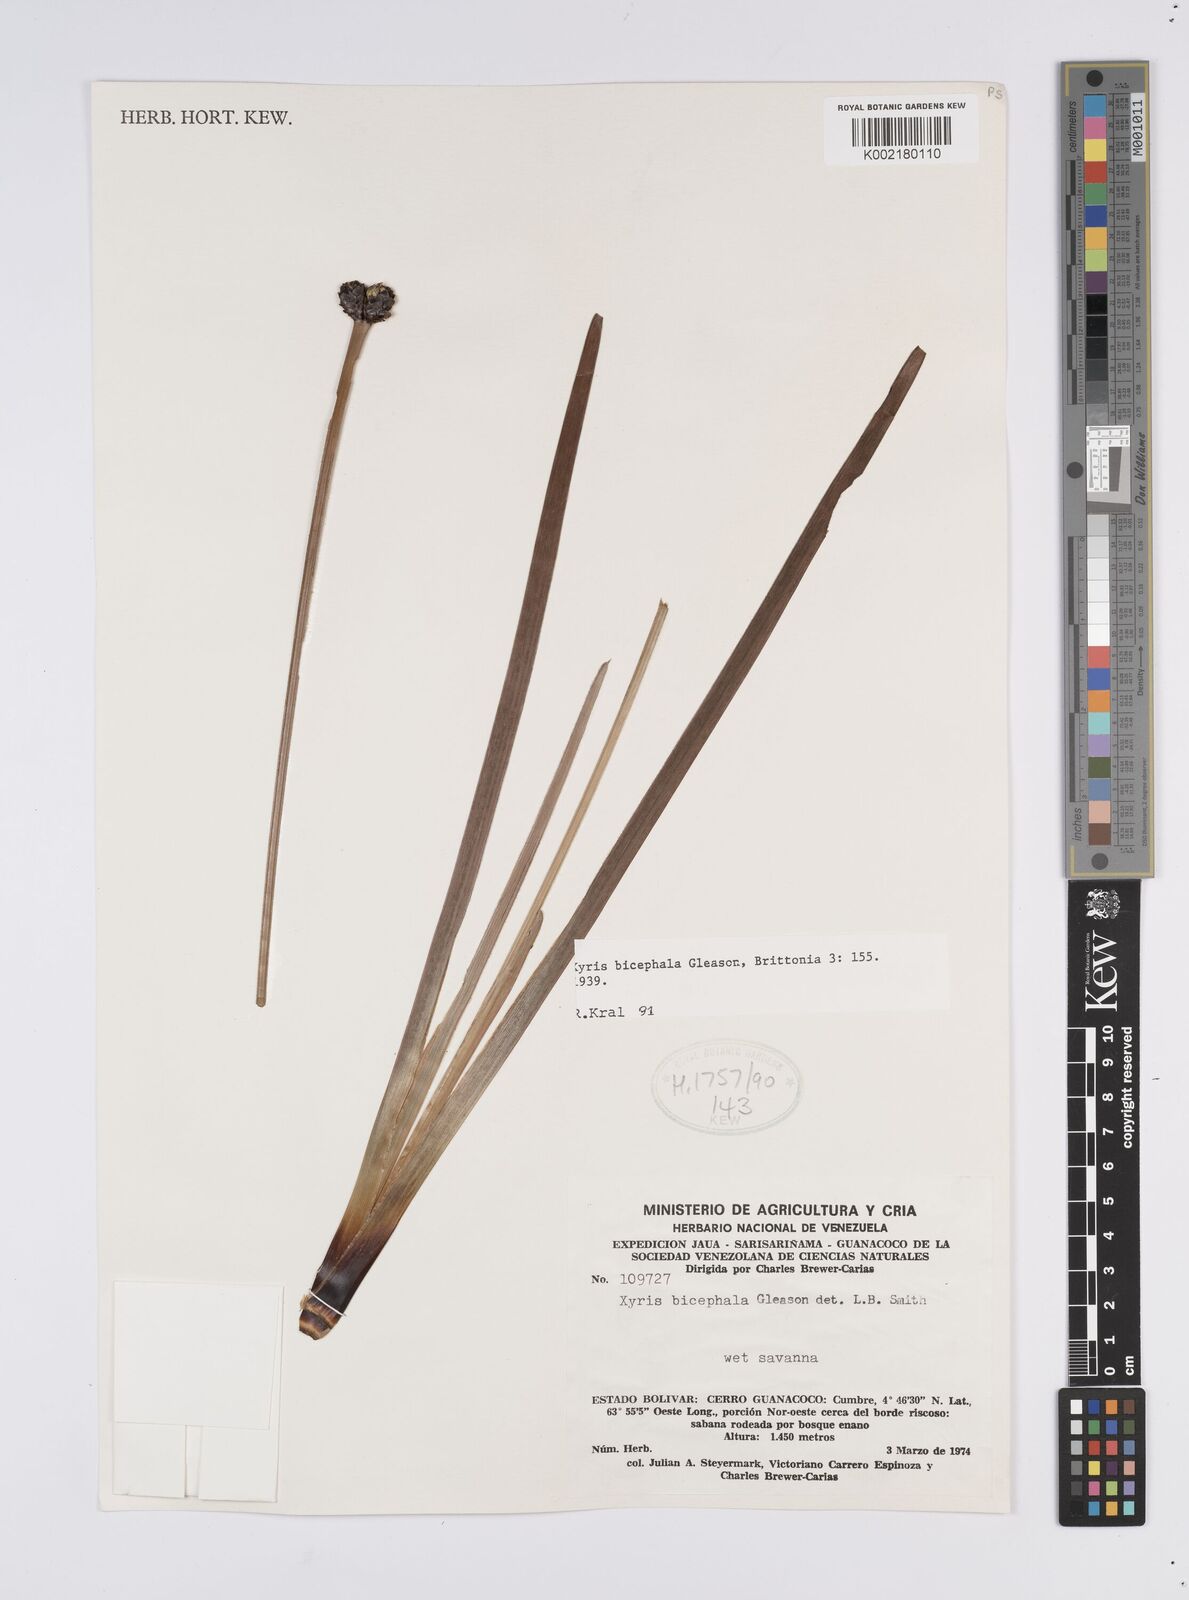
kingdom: Plantae
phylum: Tracheophyta
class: Liliopsida
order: Poales
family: Xyridaceae
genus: Xyris
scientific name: Xyris bicephala
